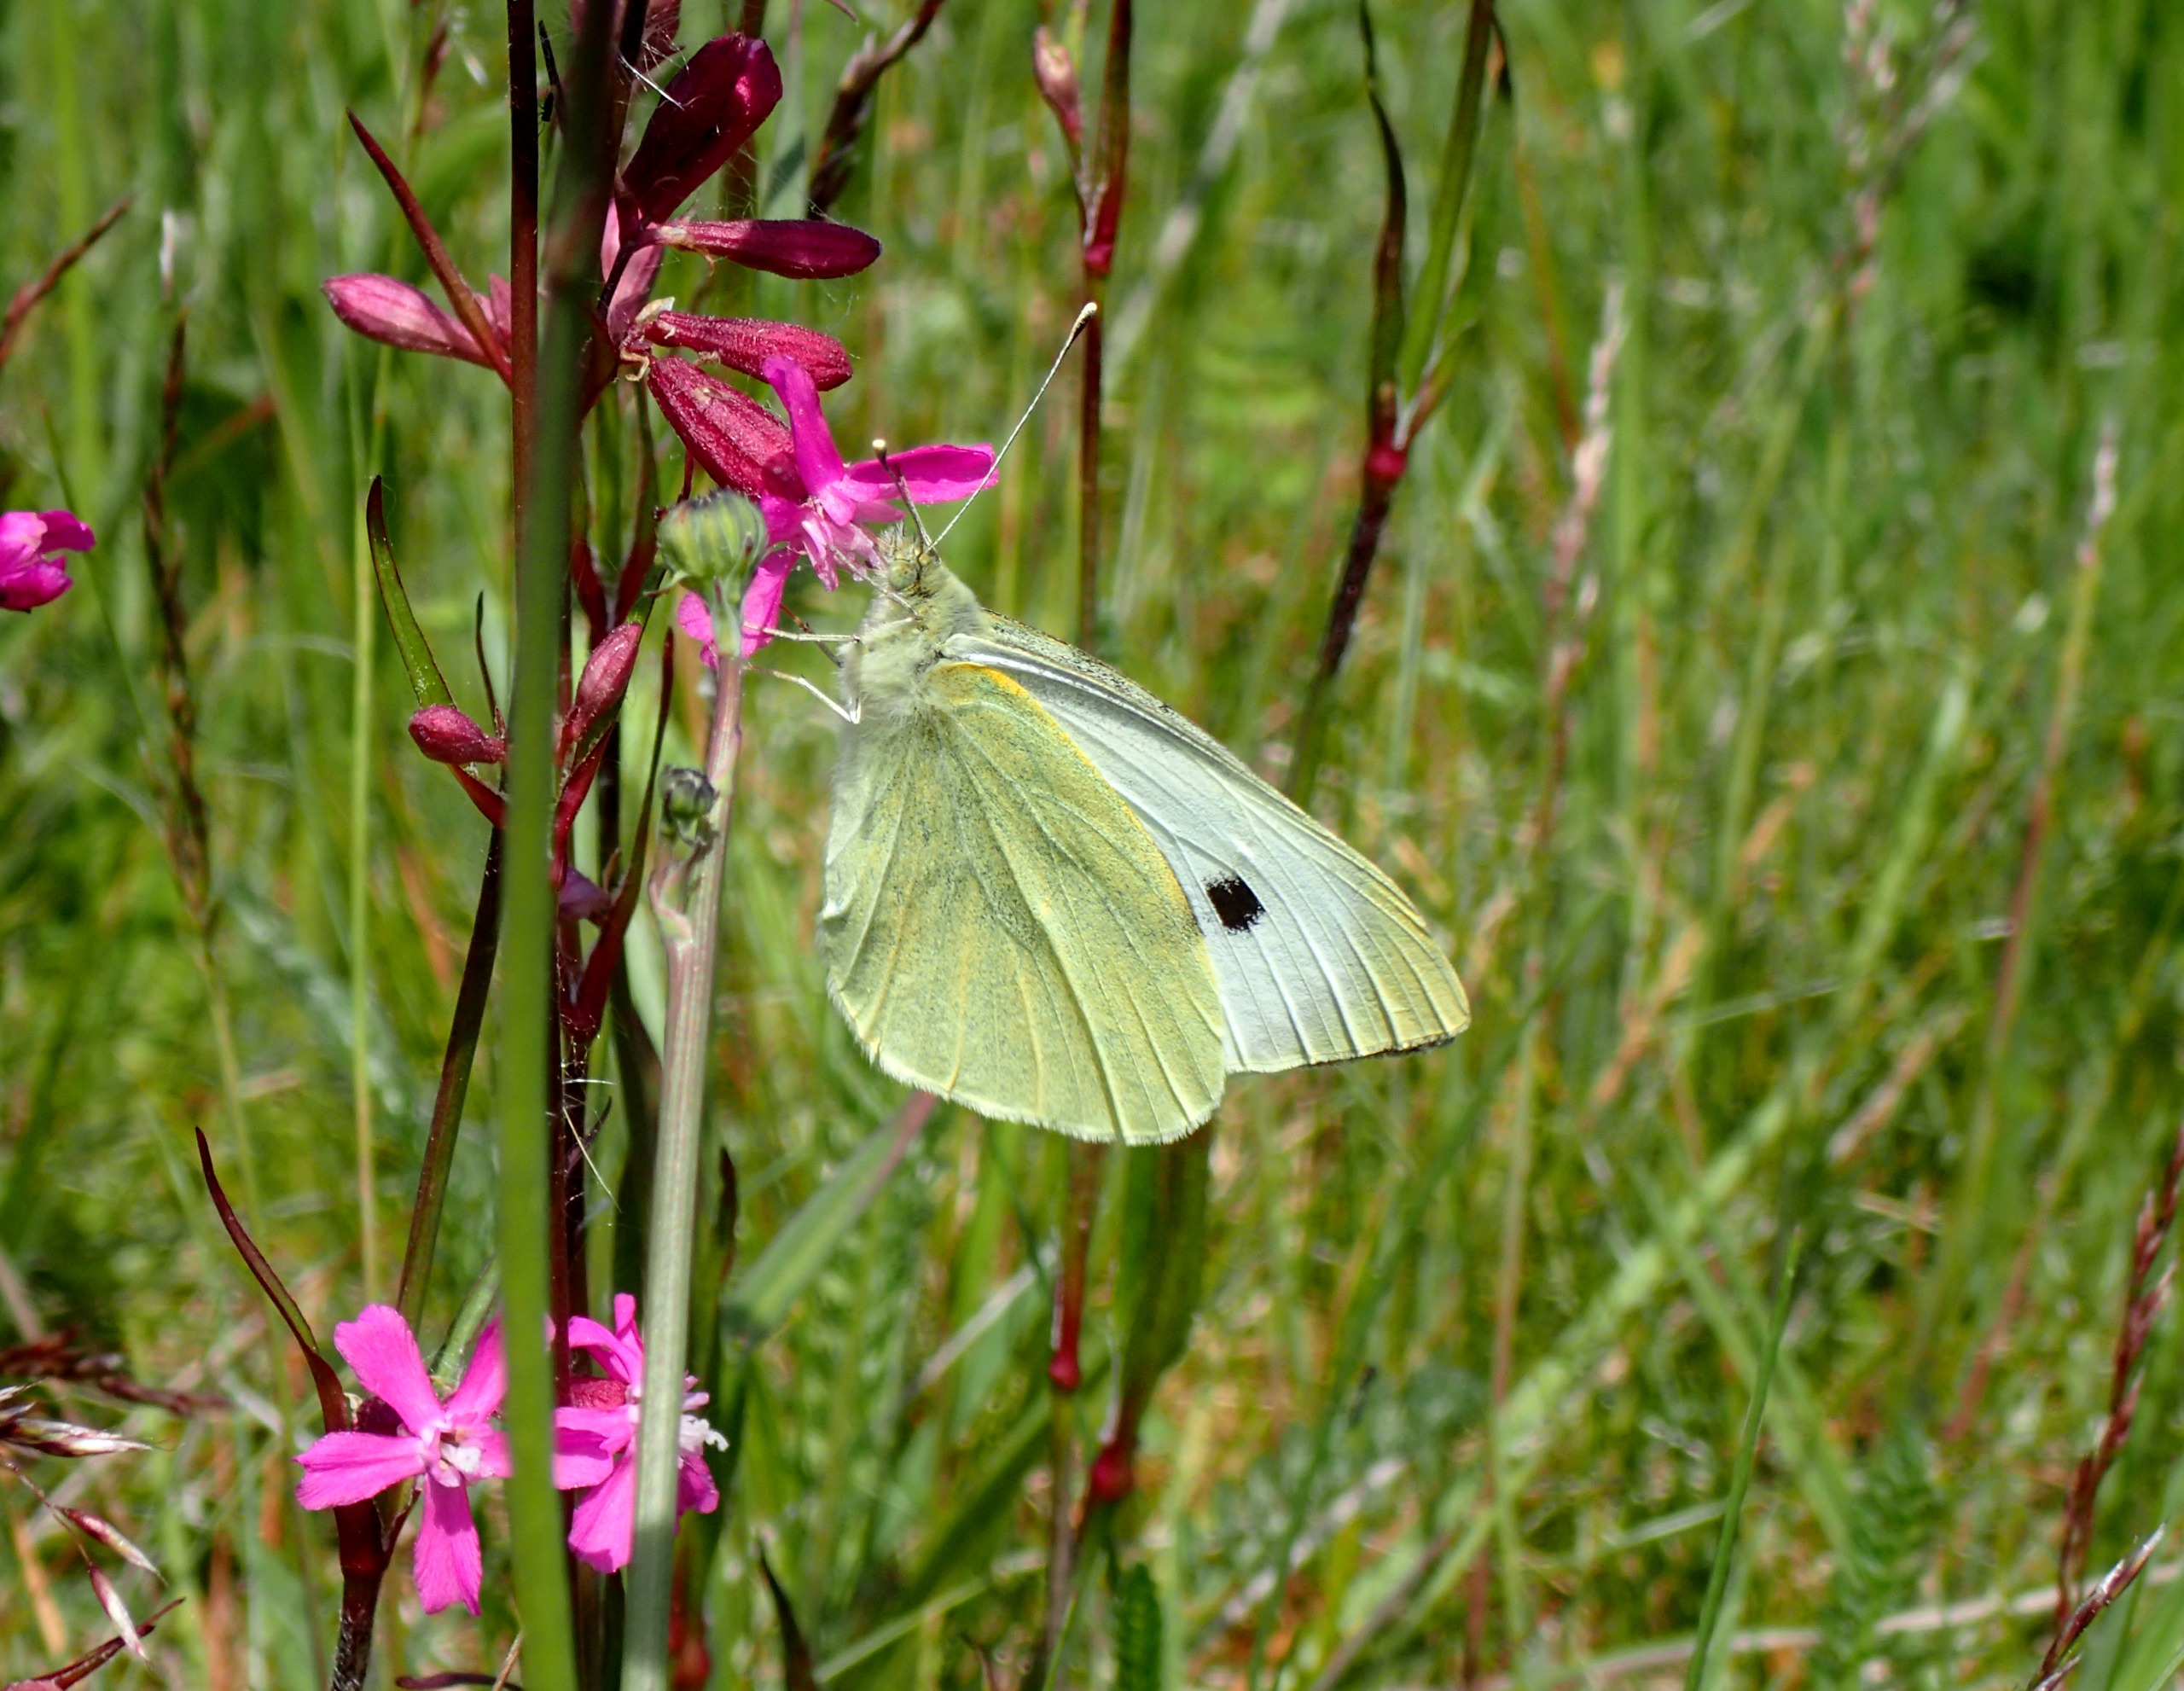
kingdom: Animalia
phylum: Arthropoda
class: Insecta
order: Lepidoptera
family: Pieridae
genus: Pieris
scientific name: Pieris brassicae
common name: Stor kålsommerfugl
